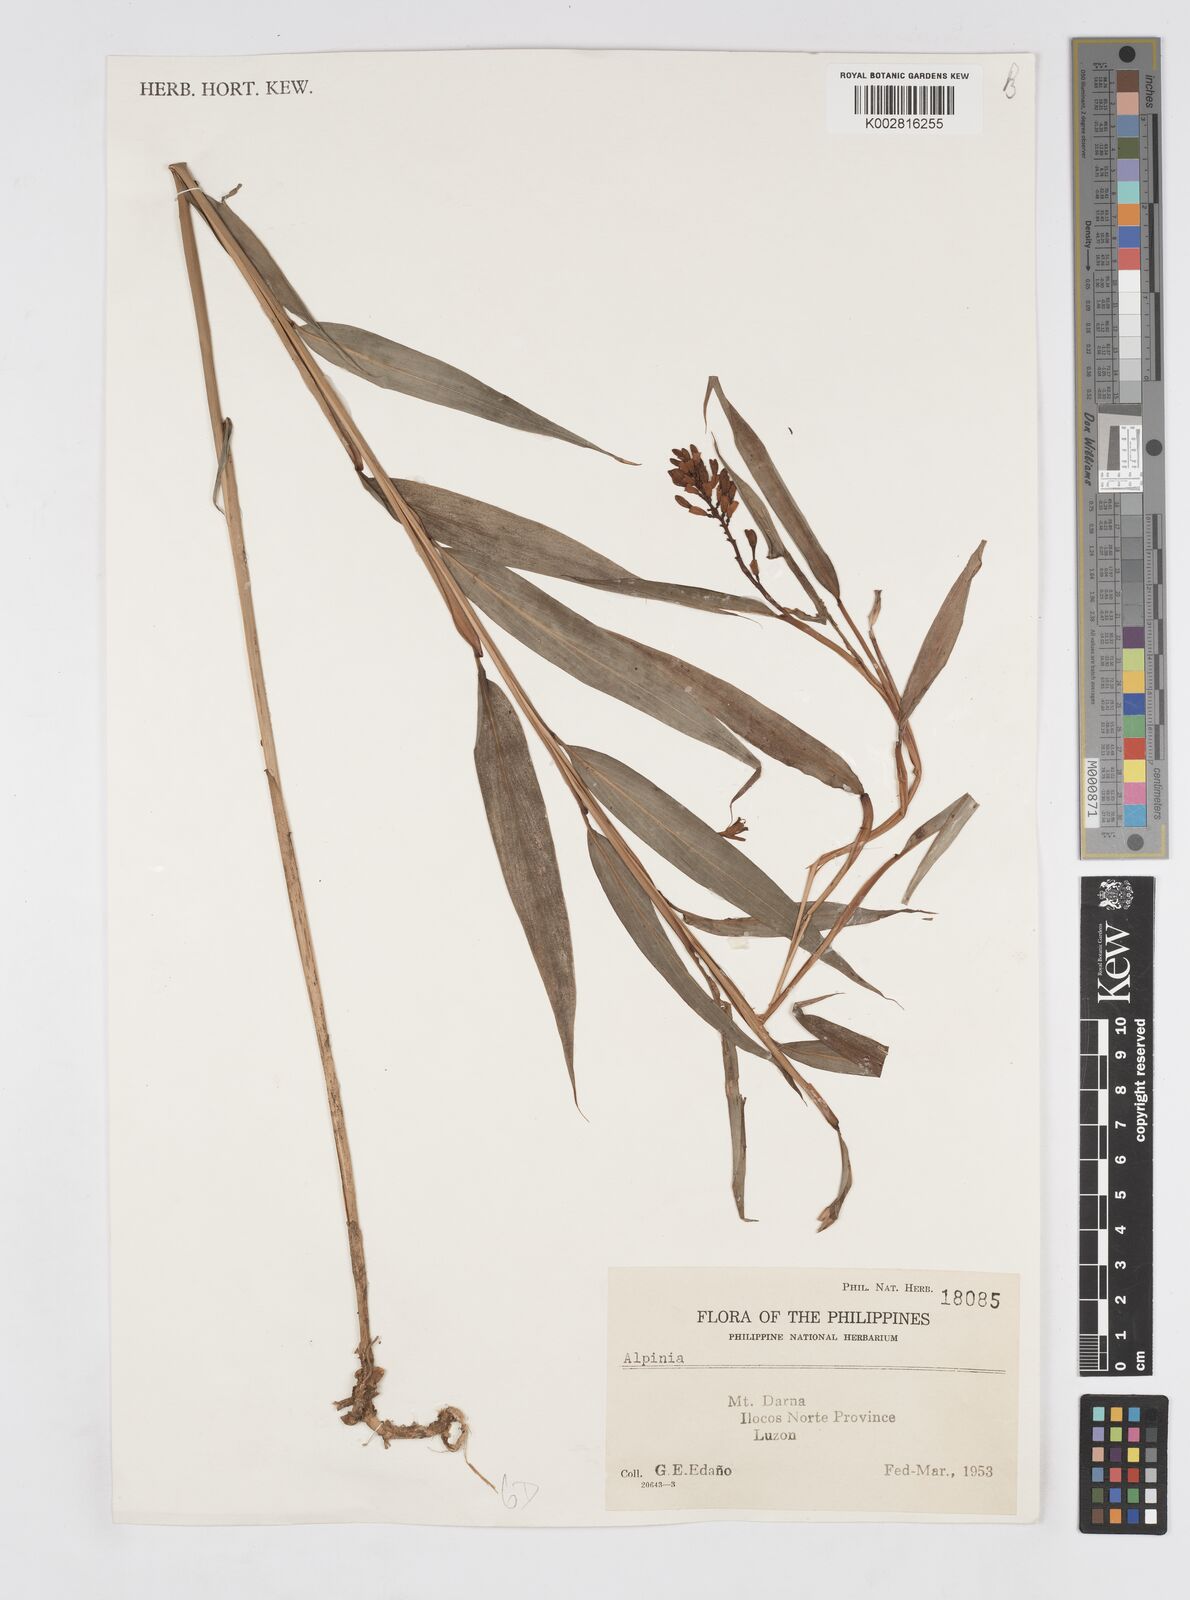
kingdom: Plantae
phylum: Tracheophyta
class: Liliopsida
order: Zingiberales
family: Zingiberaceae
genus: Alpinia
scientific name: Alpinia
